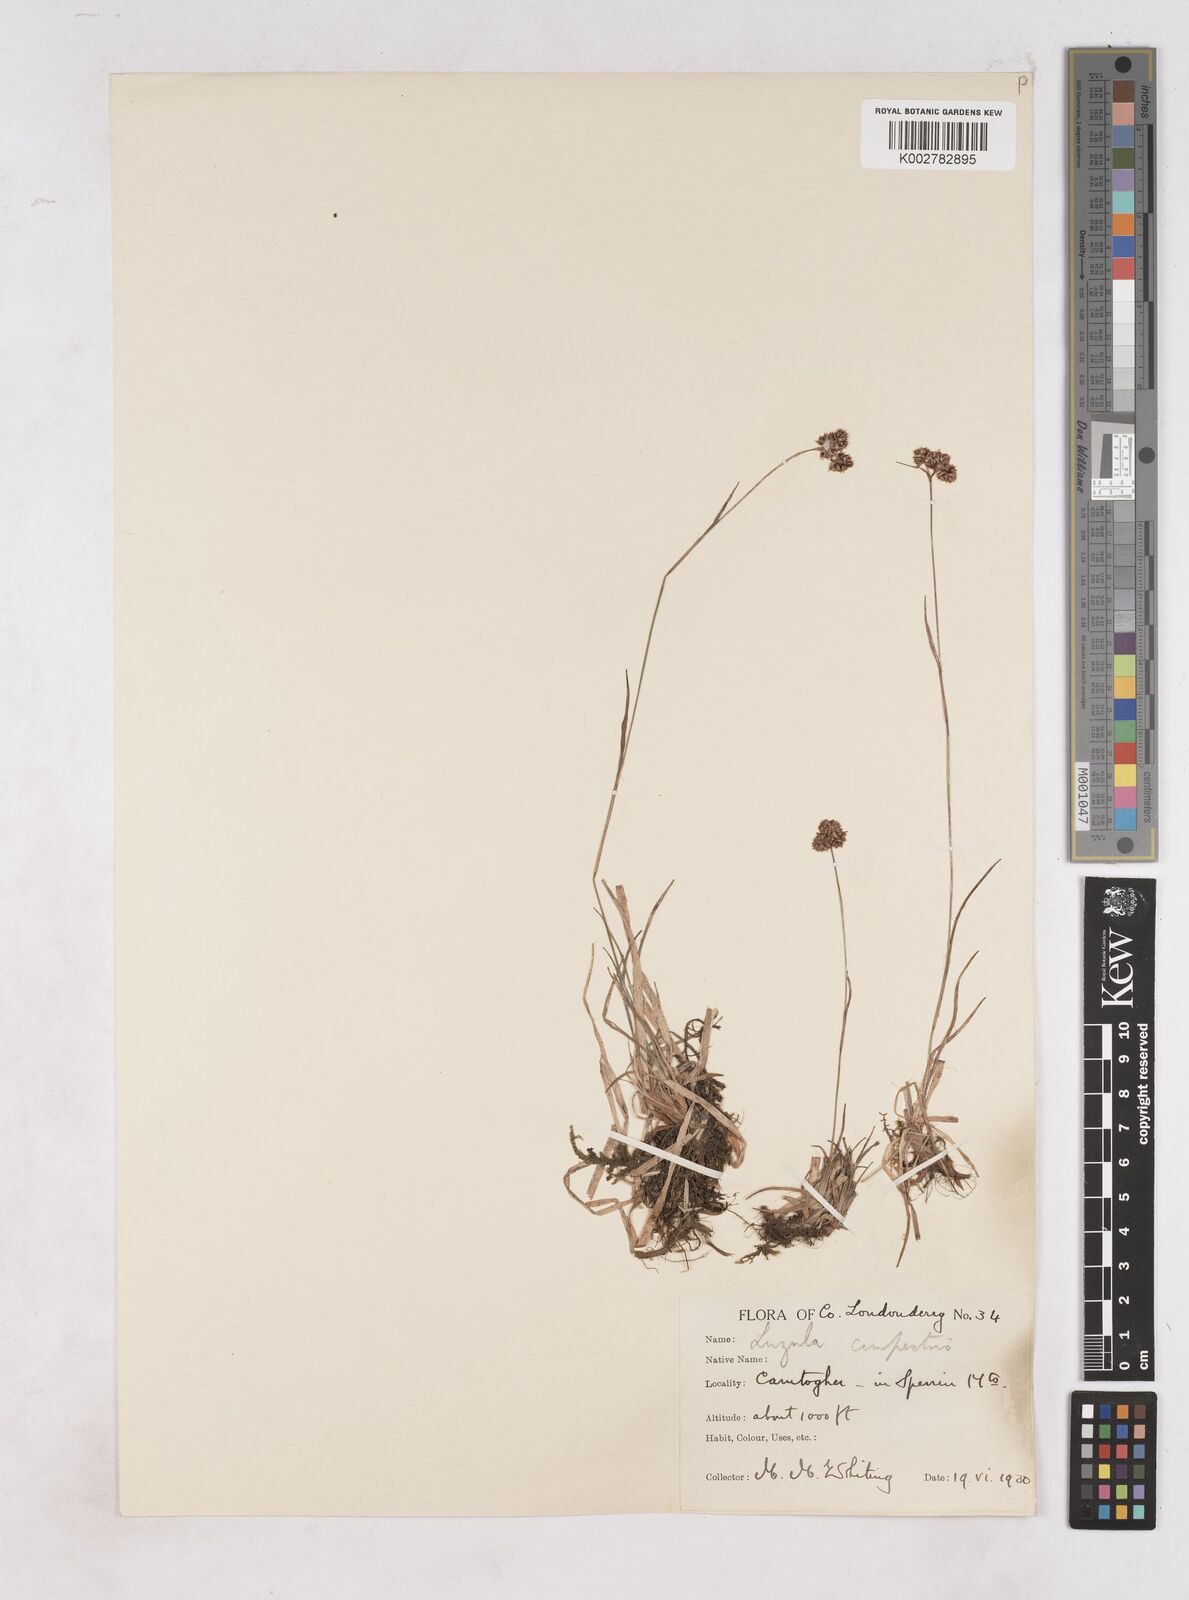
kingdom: Plantae
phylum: Tracheophyta
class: Liliopsida
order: Poales
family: Juncaceae
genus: Luzula
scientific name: Luzula campestris
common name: Field wood-rush
